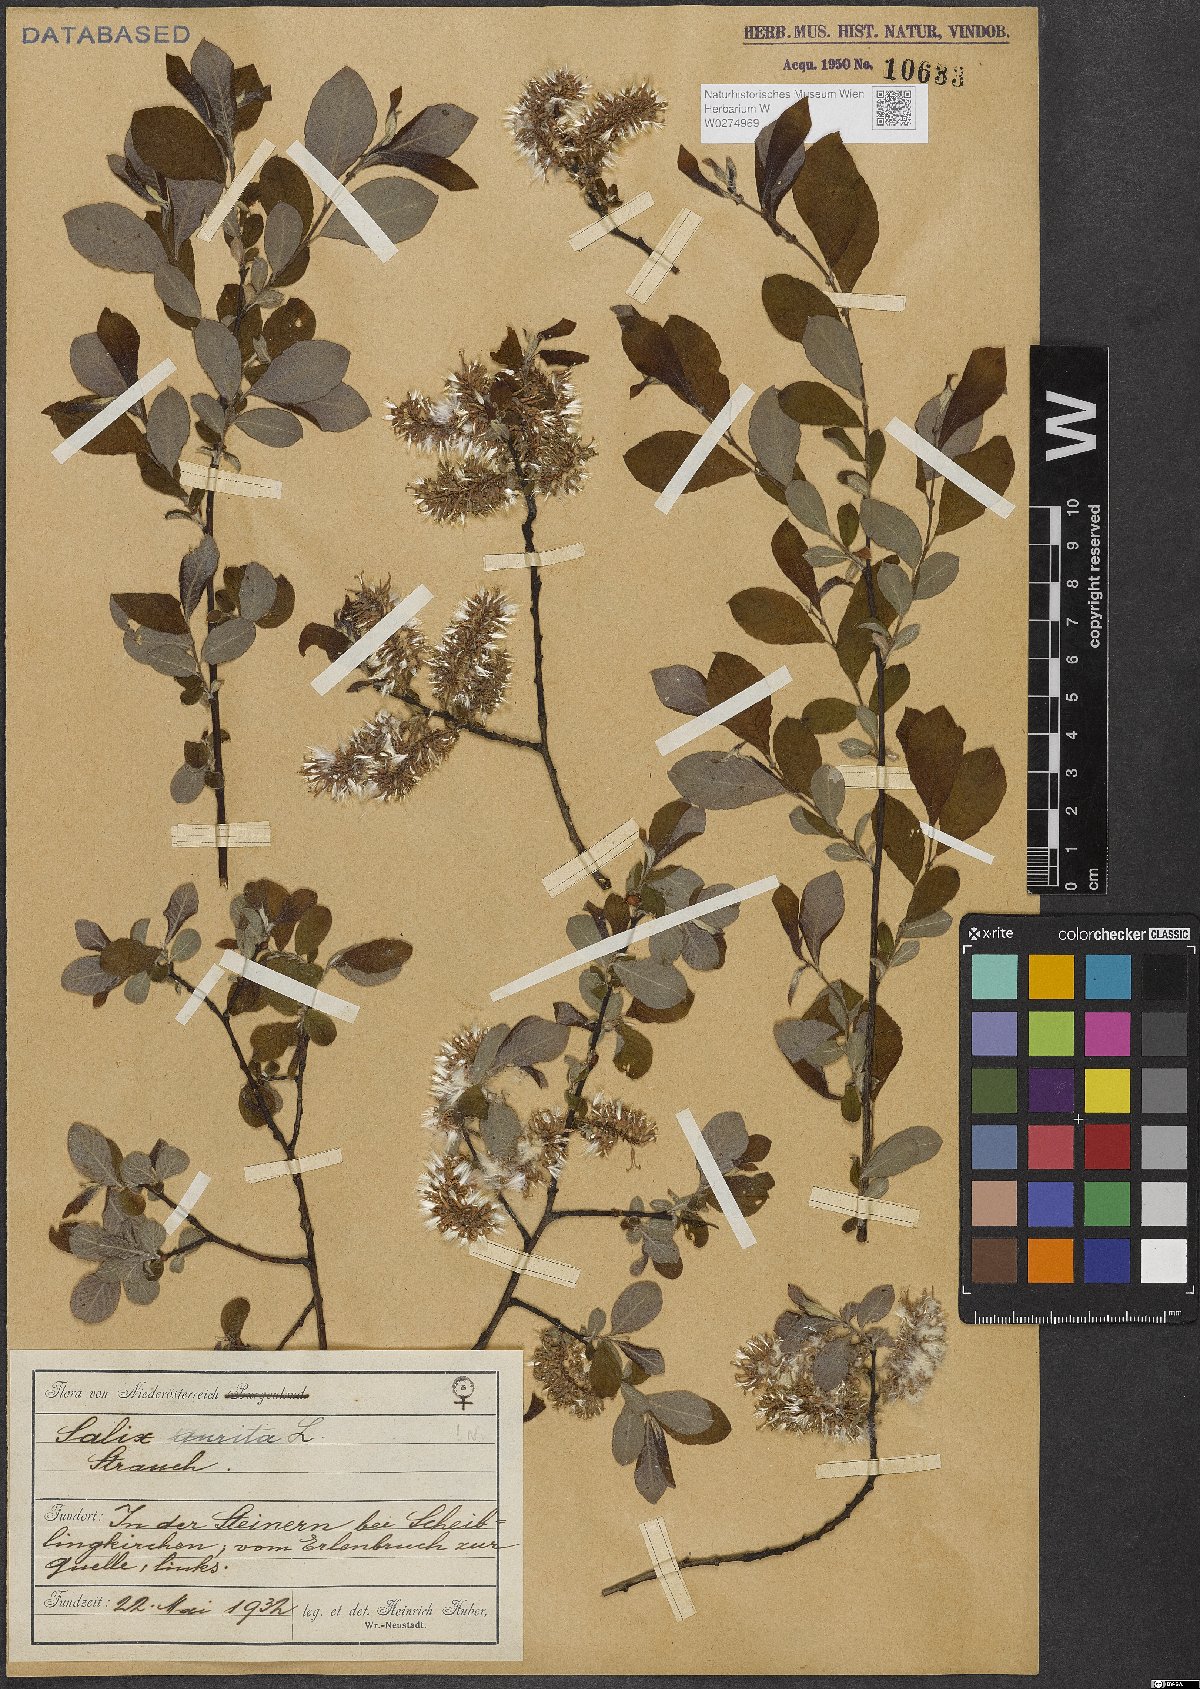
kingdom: Plantae
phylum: Tracheophyta
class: Magnoliopsida
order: Malpighiales
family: Salicaceae
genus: Salix
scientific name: Salix aurita
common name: Eared willow
